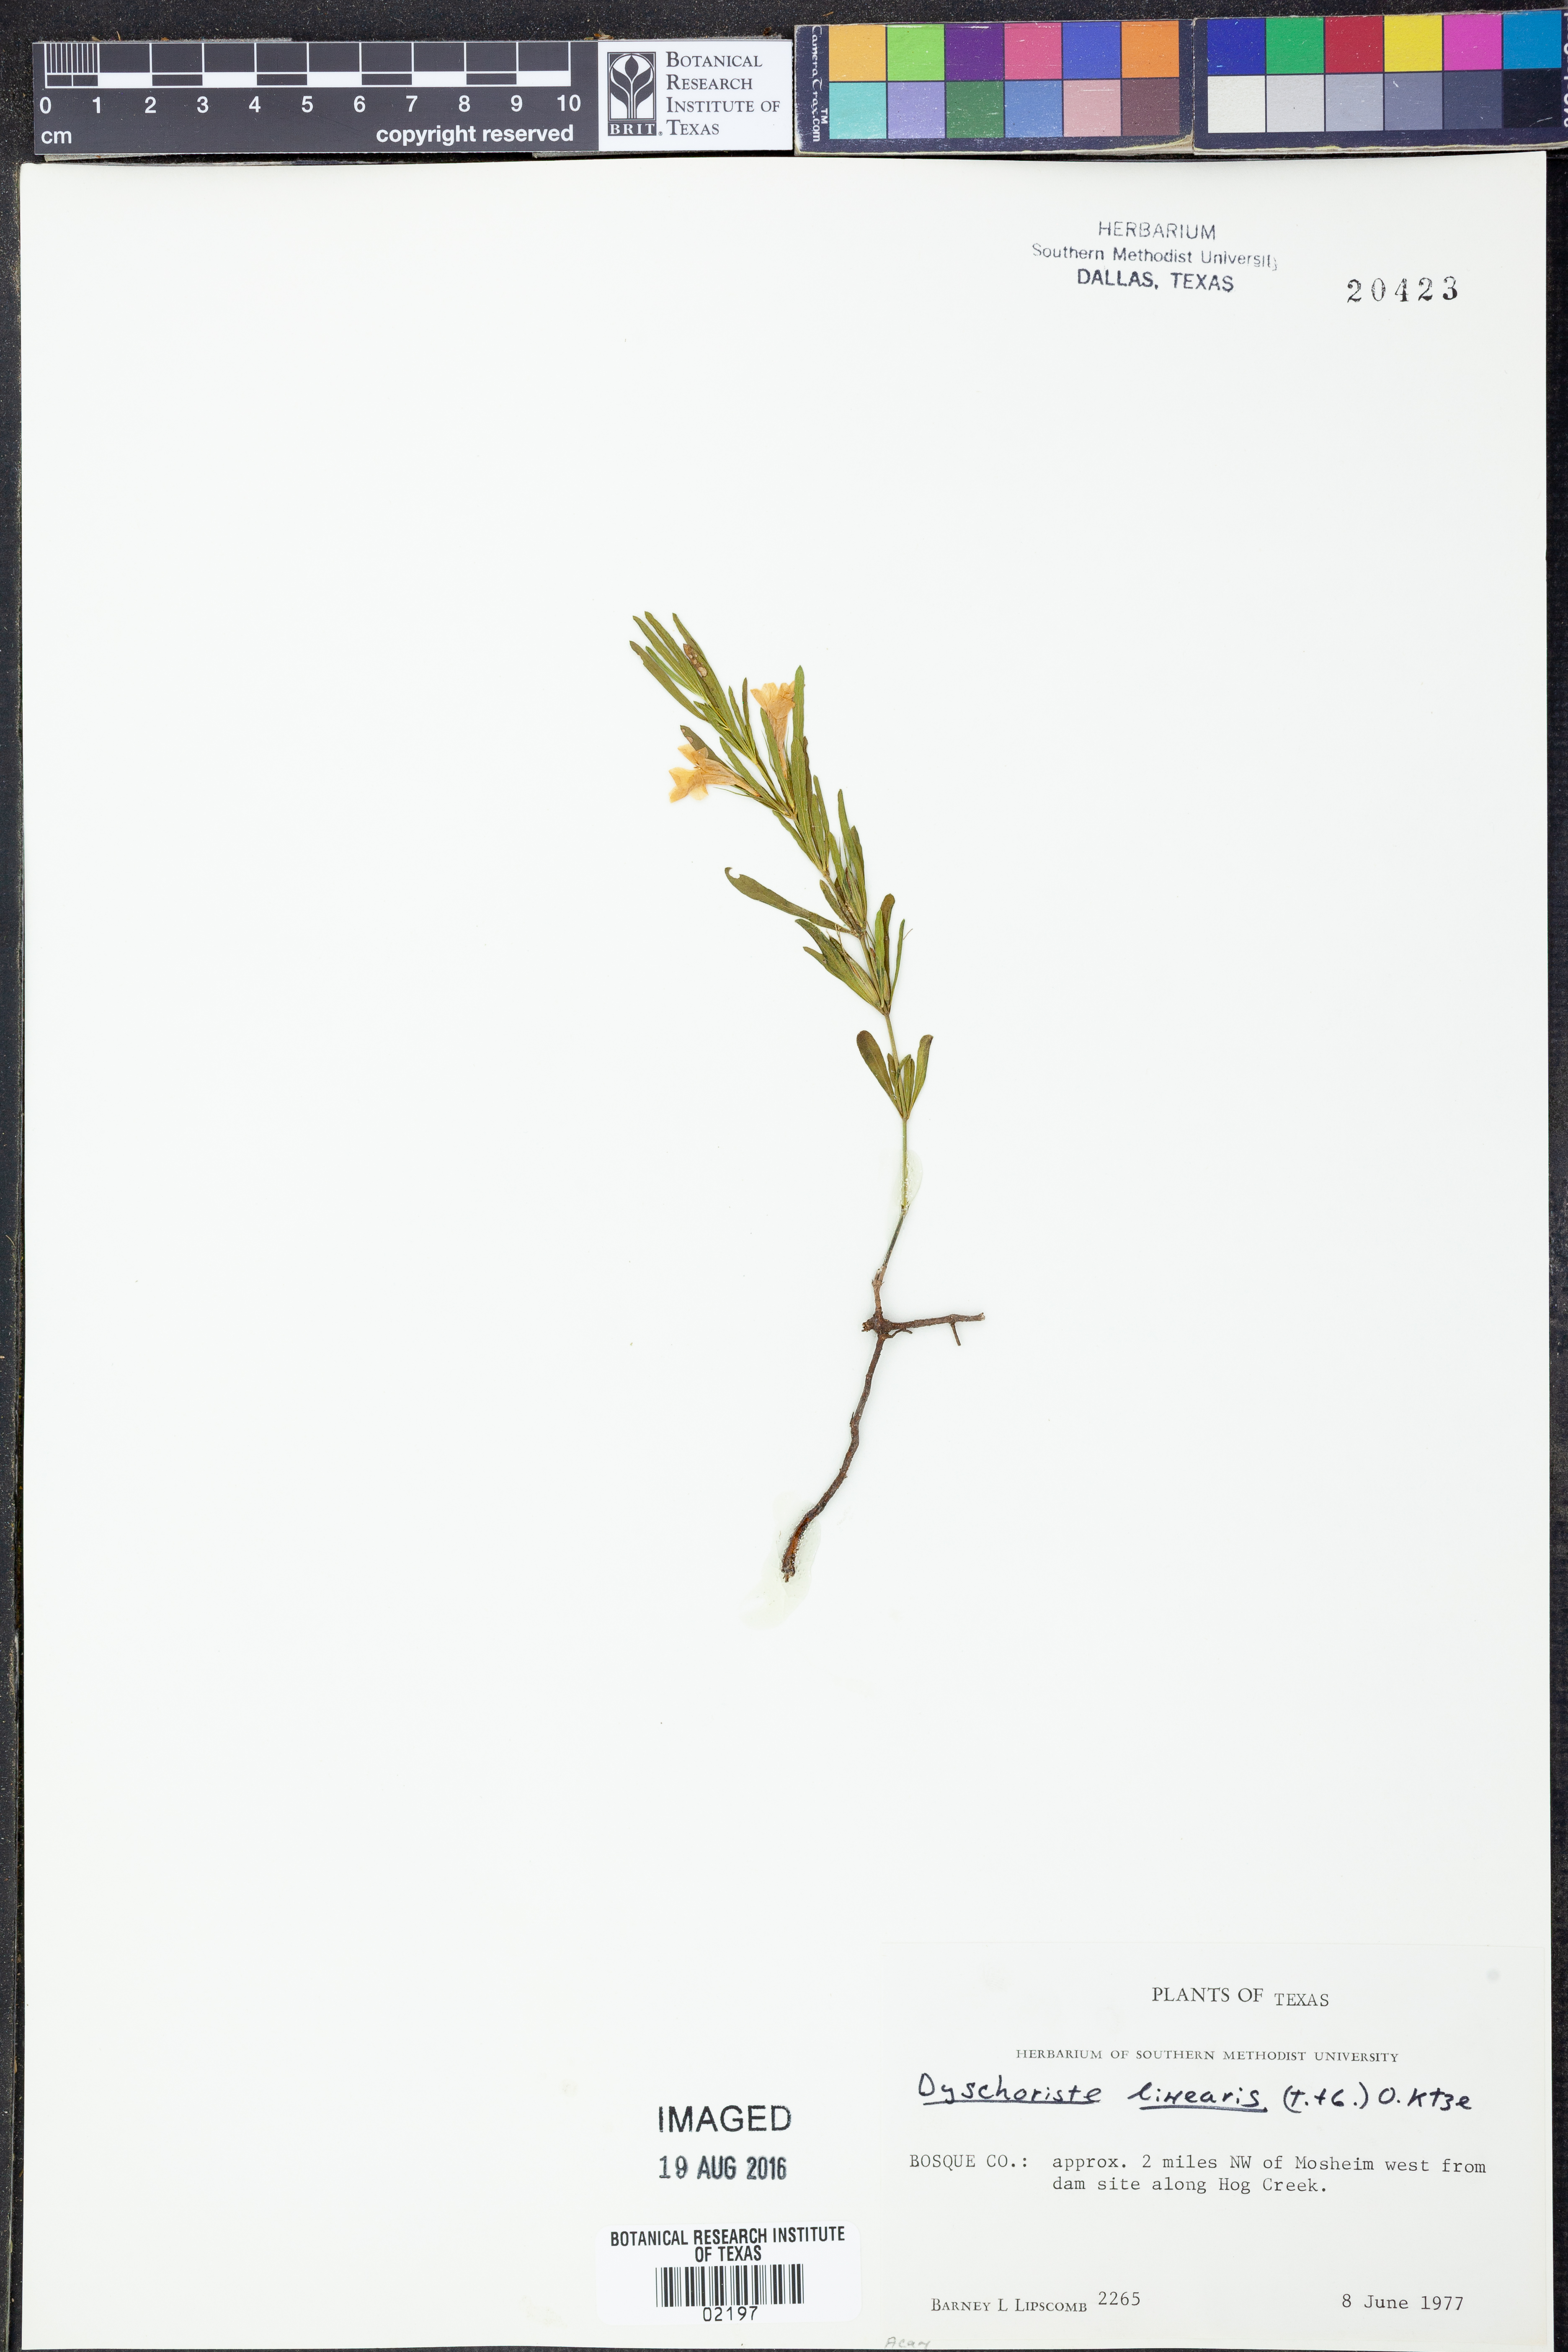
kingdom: Plantae
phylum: Tracheophyta
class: Magnoliopsida
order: Lamiales
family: Acanthaceae
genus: Dyschoriste
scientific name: Dyschoriste linearis
